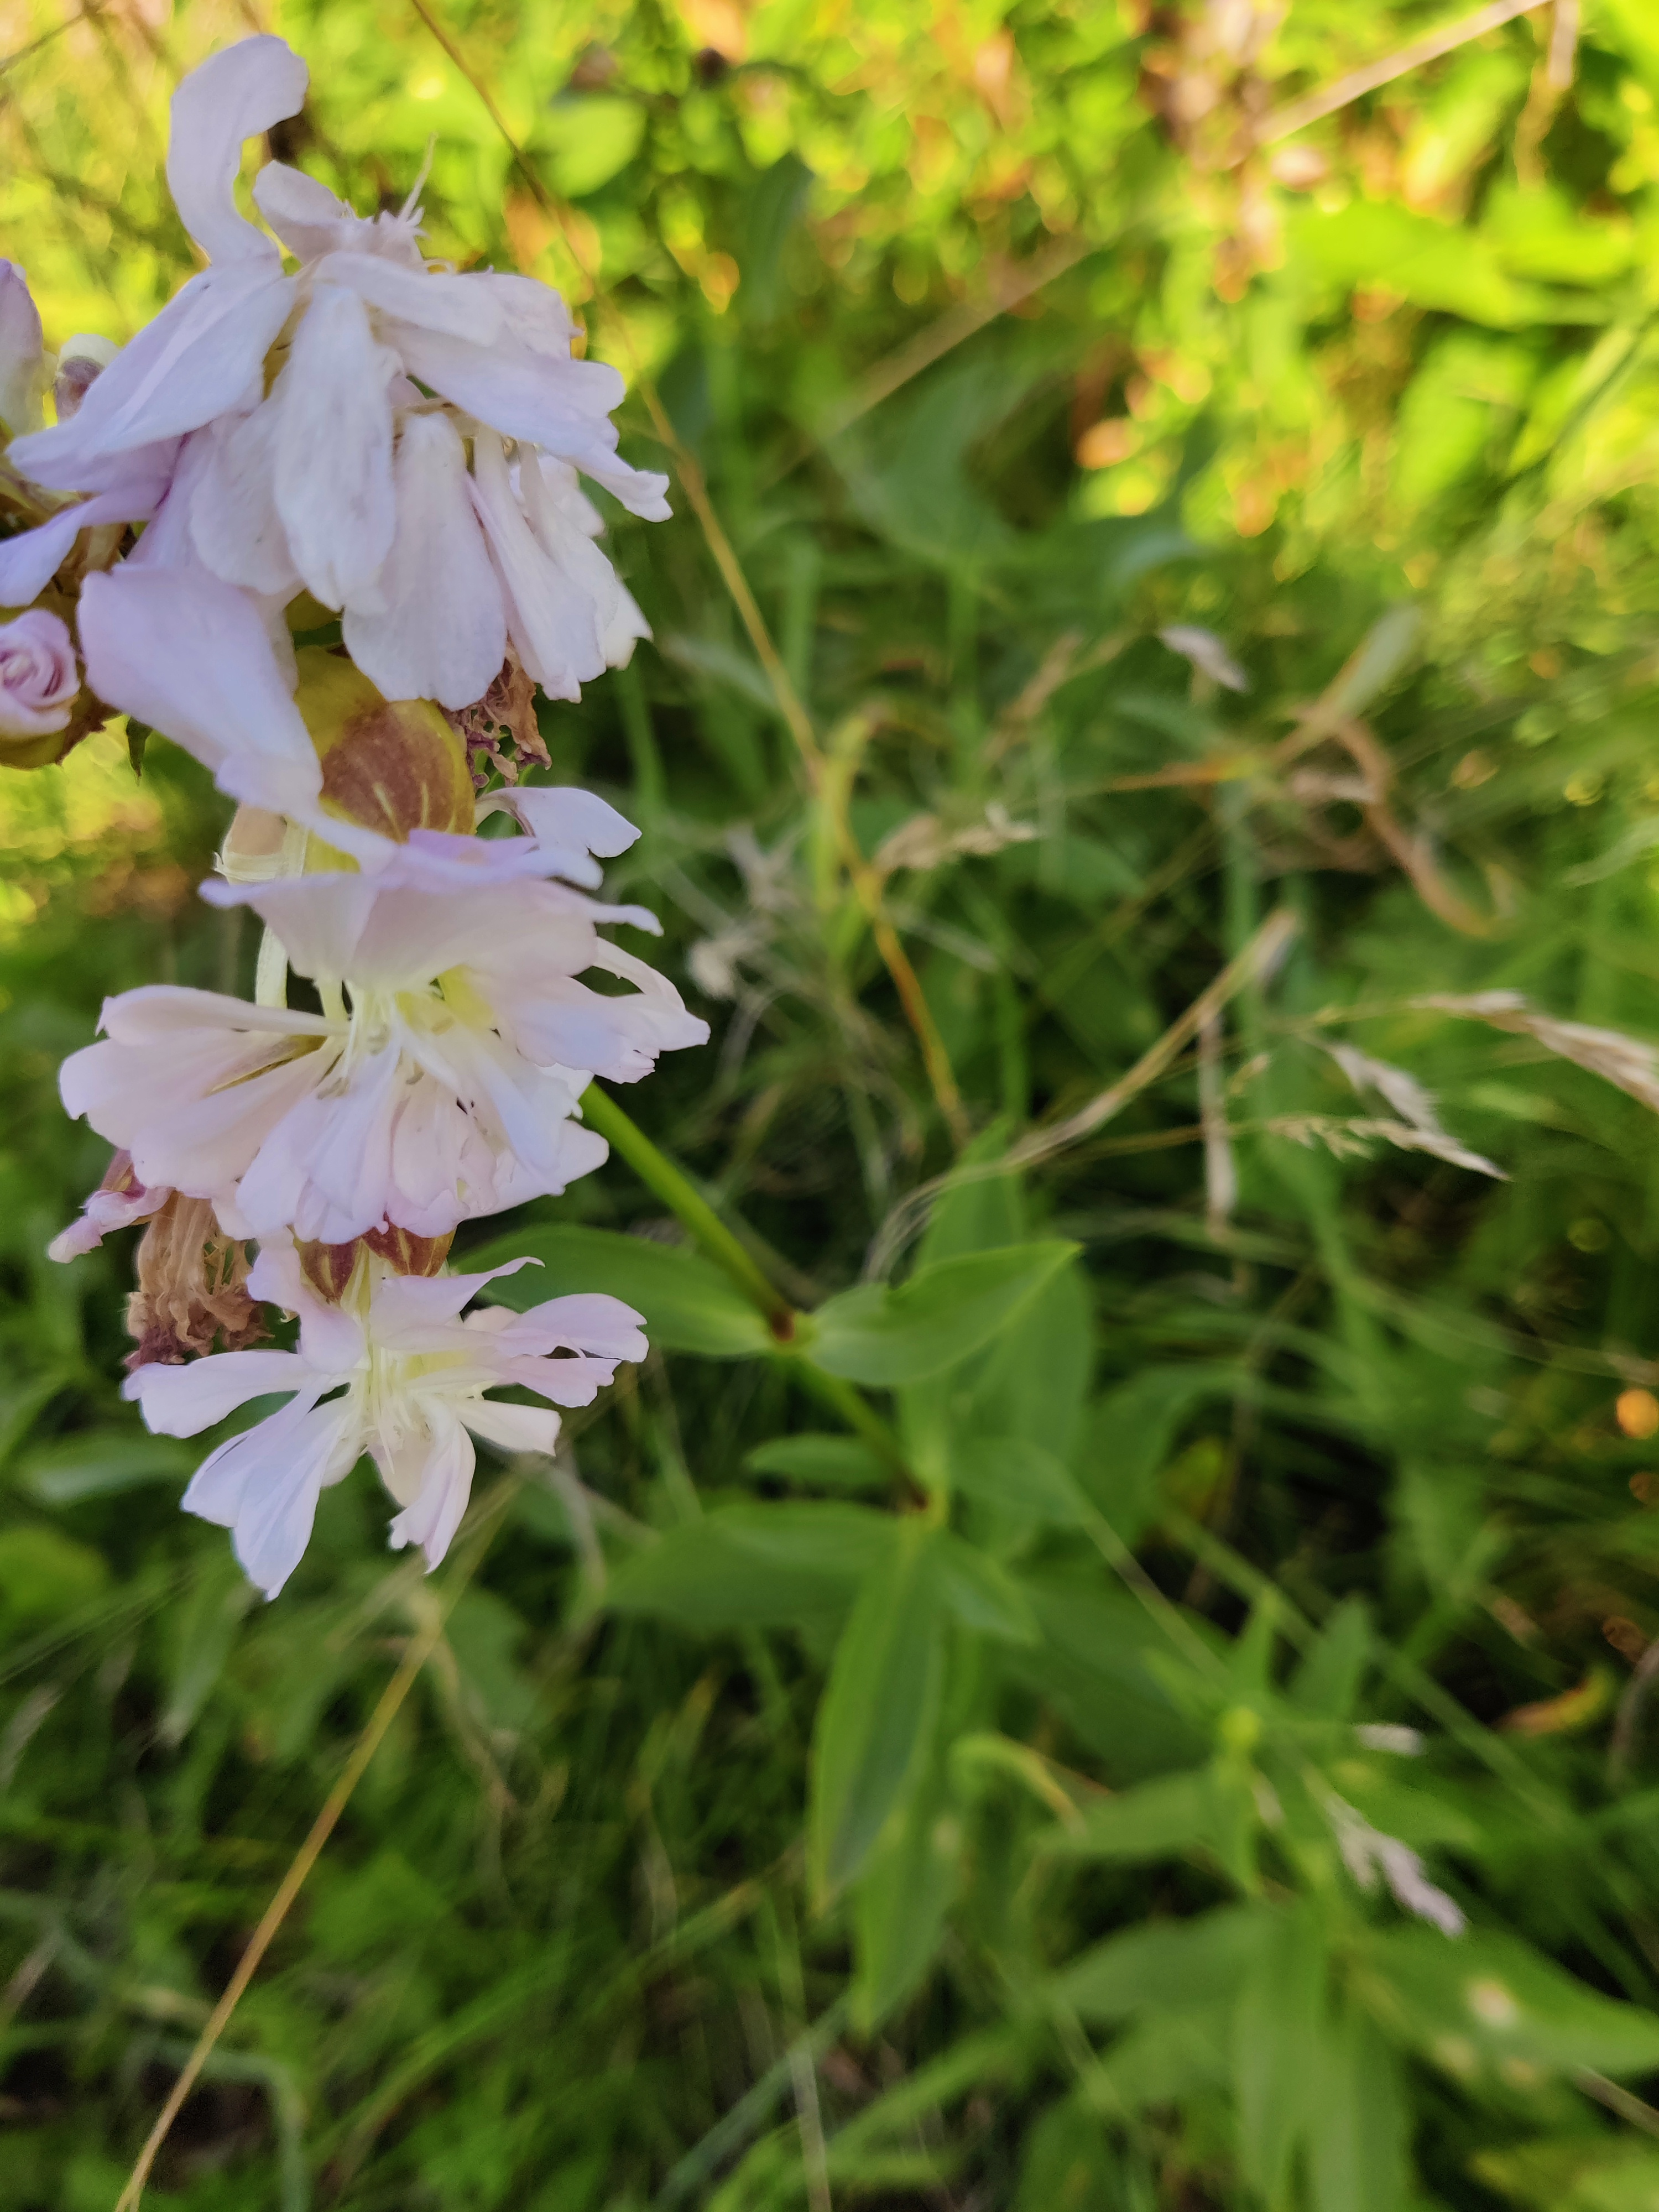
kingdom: Plantae
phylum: Tracheophyta
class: Magnoliopsida
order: Caryophyllales
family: Caryophyllaceae
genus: Saponaria
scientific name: Saponaria officinalis
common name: Sæbeurt
